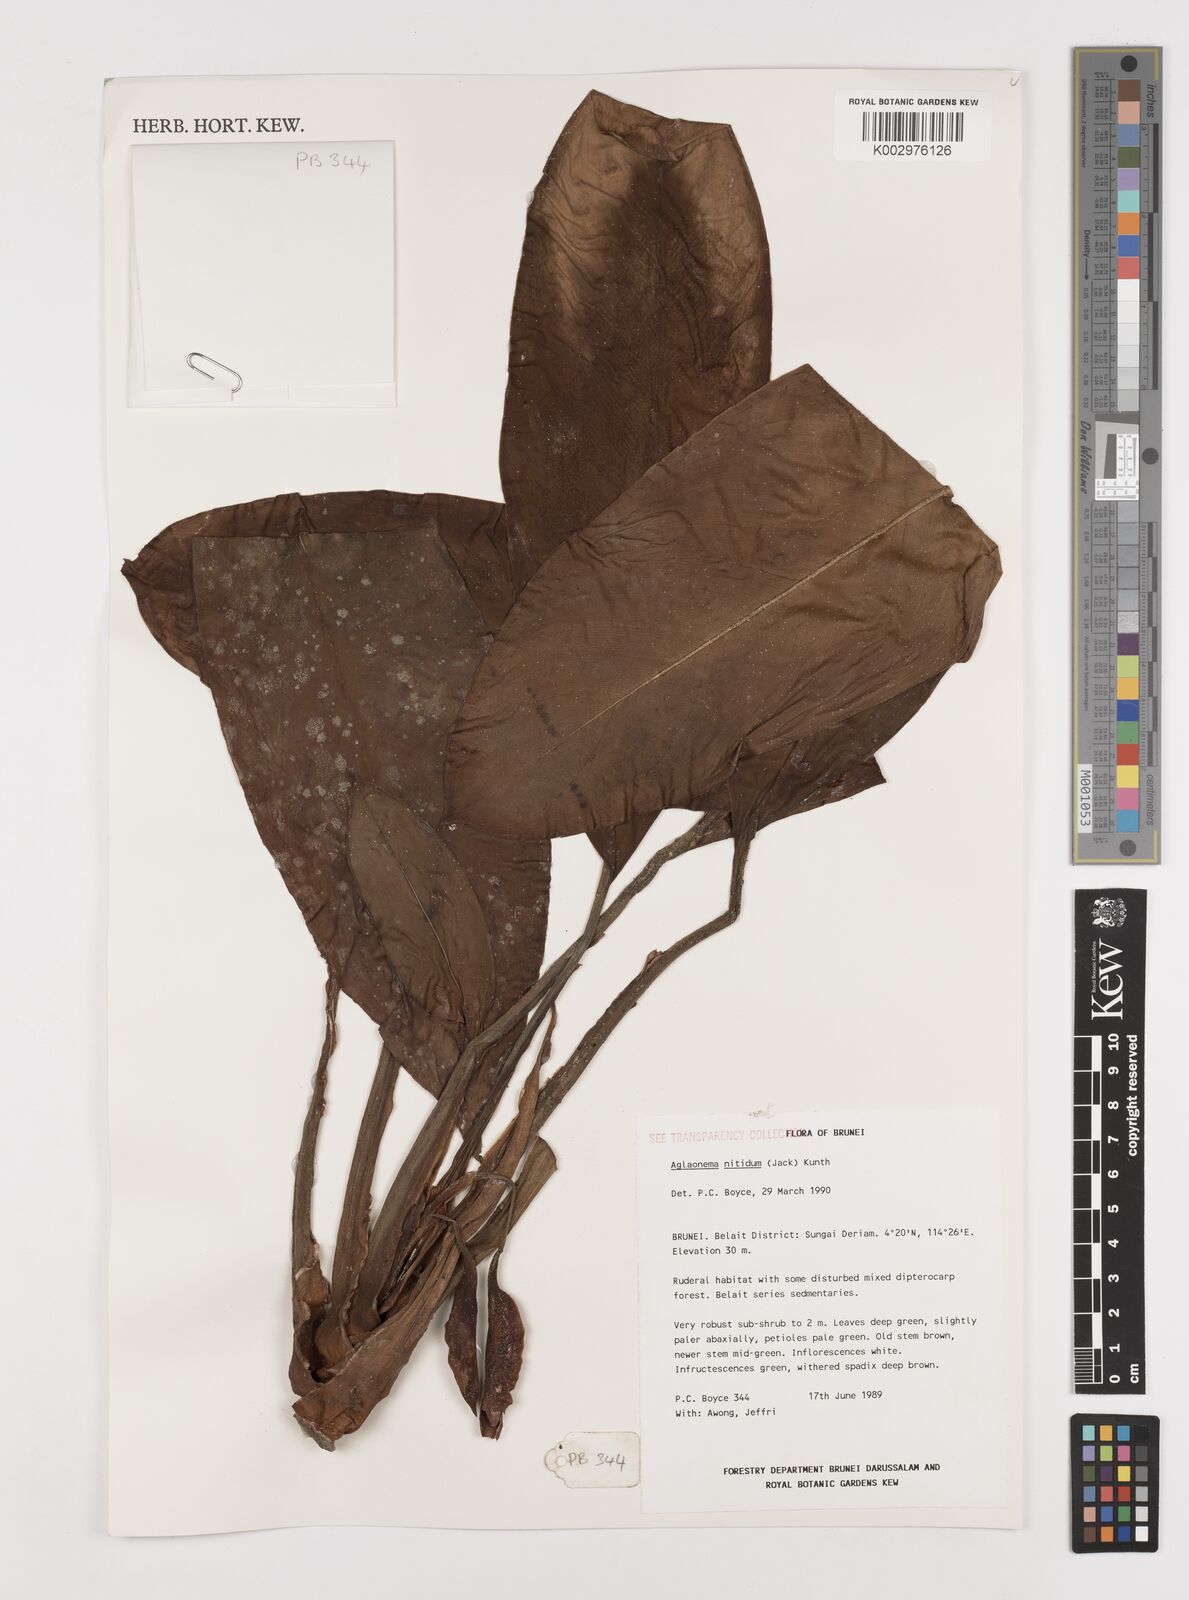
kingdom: Plantae
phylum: Tracheophyta
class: Liliopsida
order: Alismatales
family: Araceae
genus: Aglaonema
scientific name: Aglaonema nitidum
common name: Aglaonema aroid
